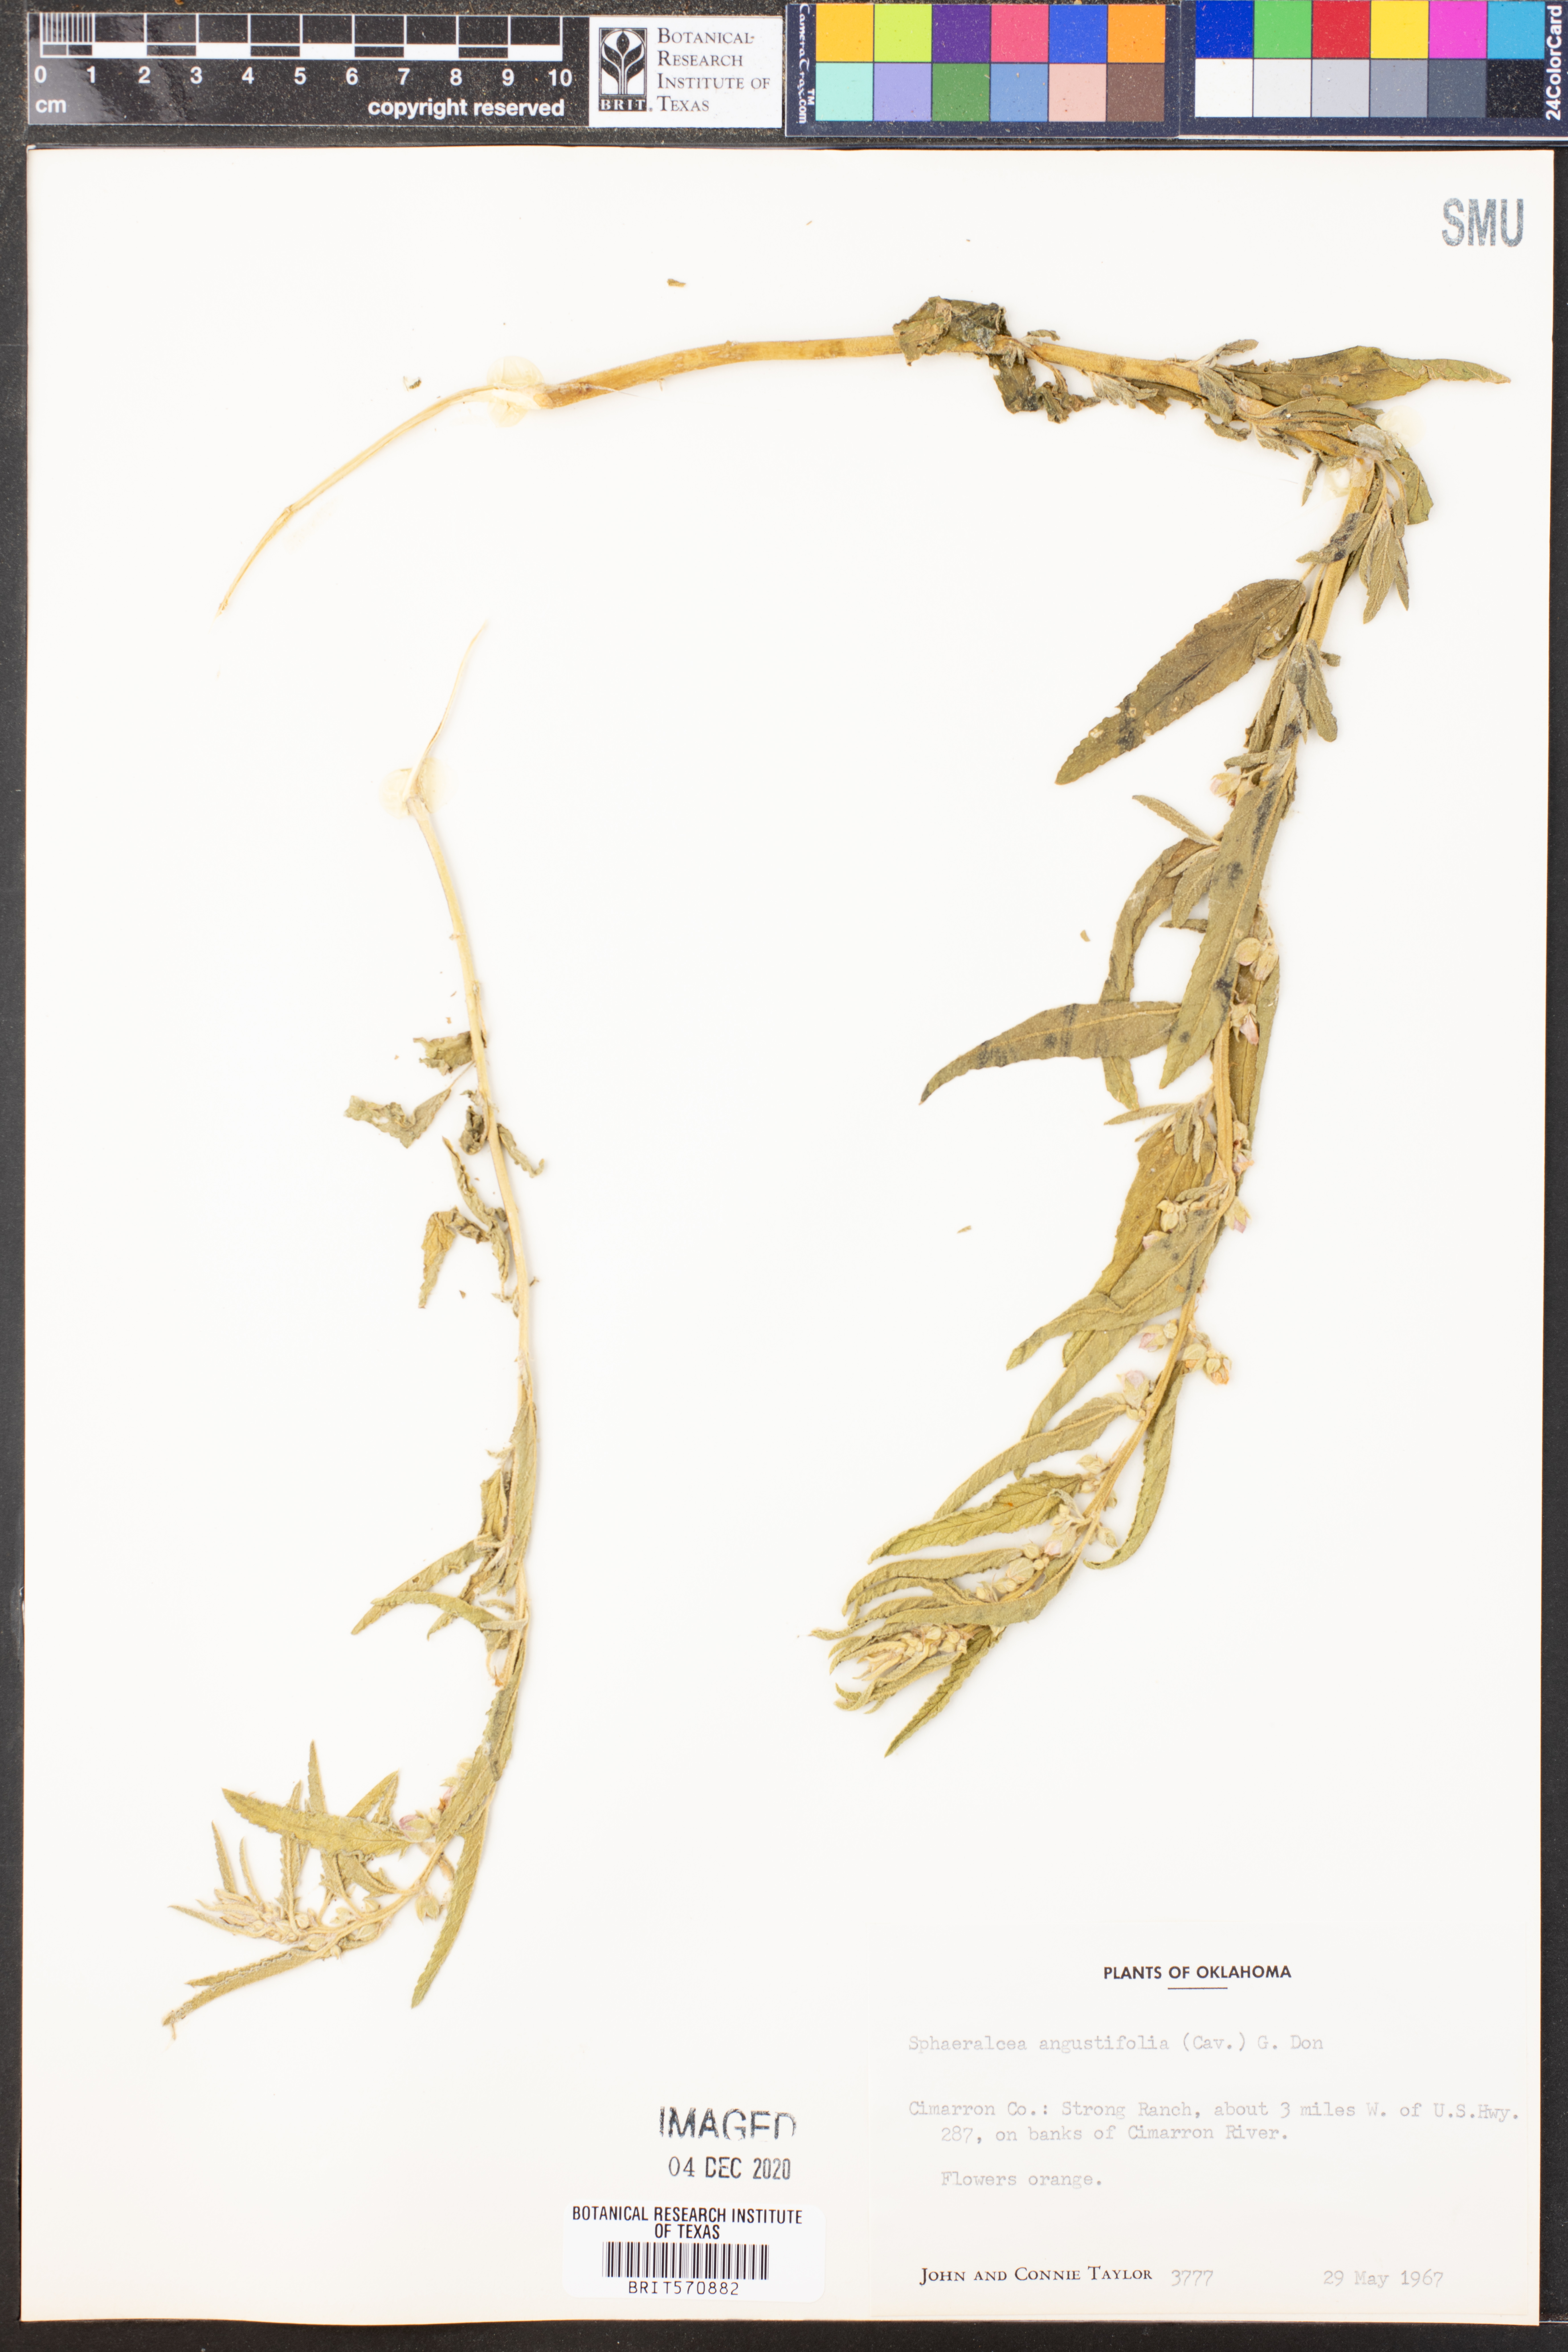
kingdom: Plantae
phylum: Tracheophyta
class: Magnoliopsida
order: Malvales
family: Malvaceae
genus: Sphaeralcea
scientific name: Sphaeralcea angustifolia
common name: Copper globe-mallow
